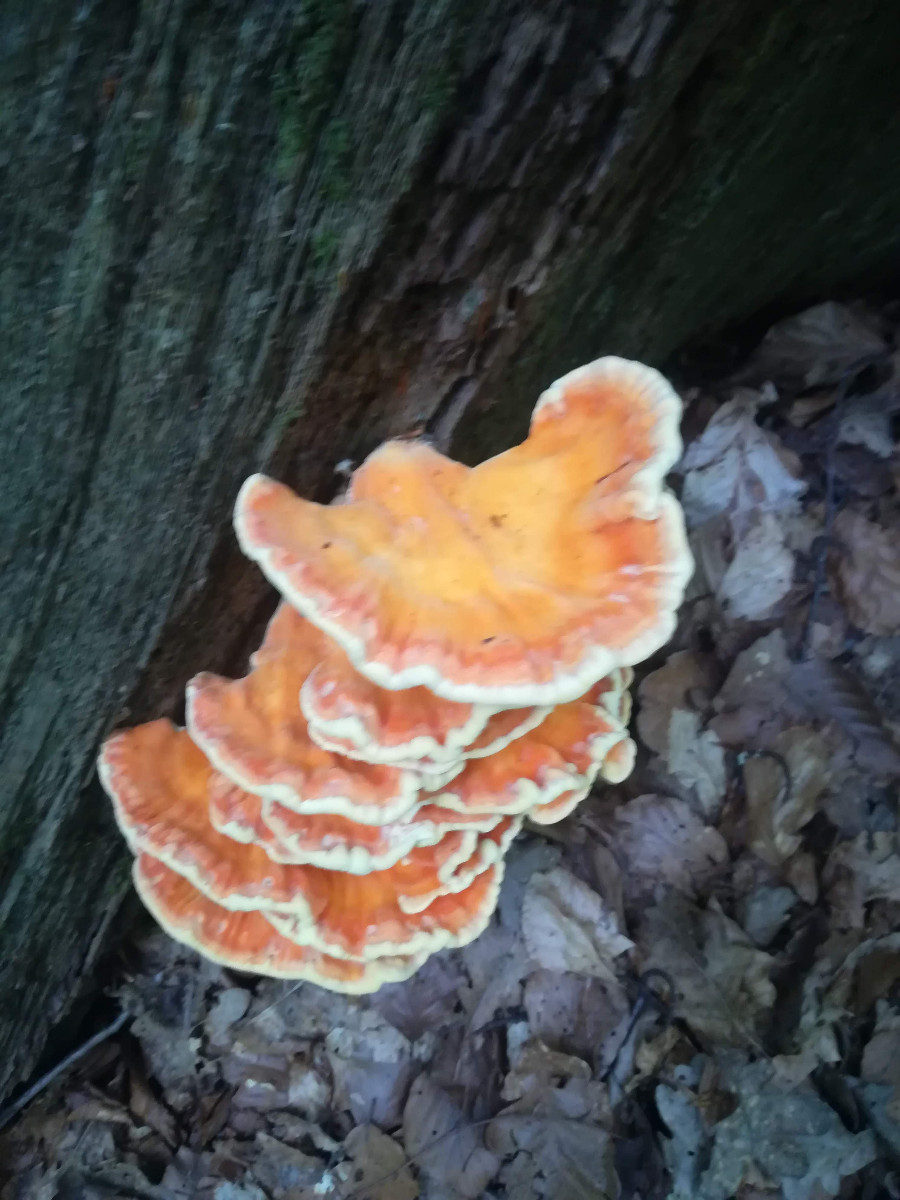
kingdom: Fungi
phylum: Basidiomycota
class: Agaricomycetes
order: Polyporales
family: Laetiporaceae
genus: Laetiporus
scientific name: Laetiporus sulphureus
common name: svovlporesvamp
